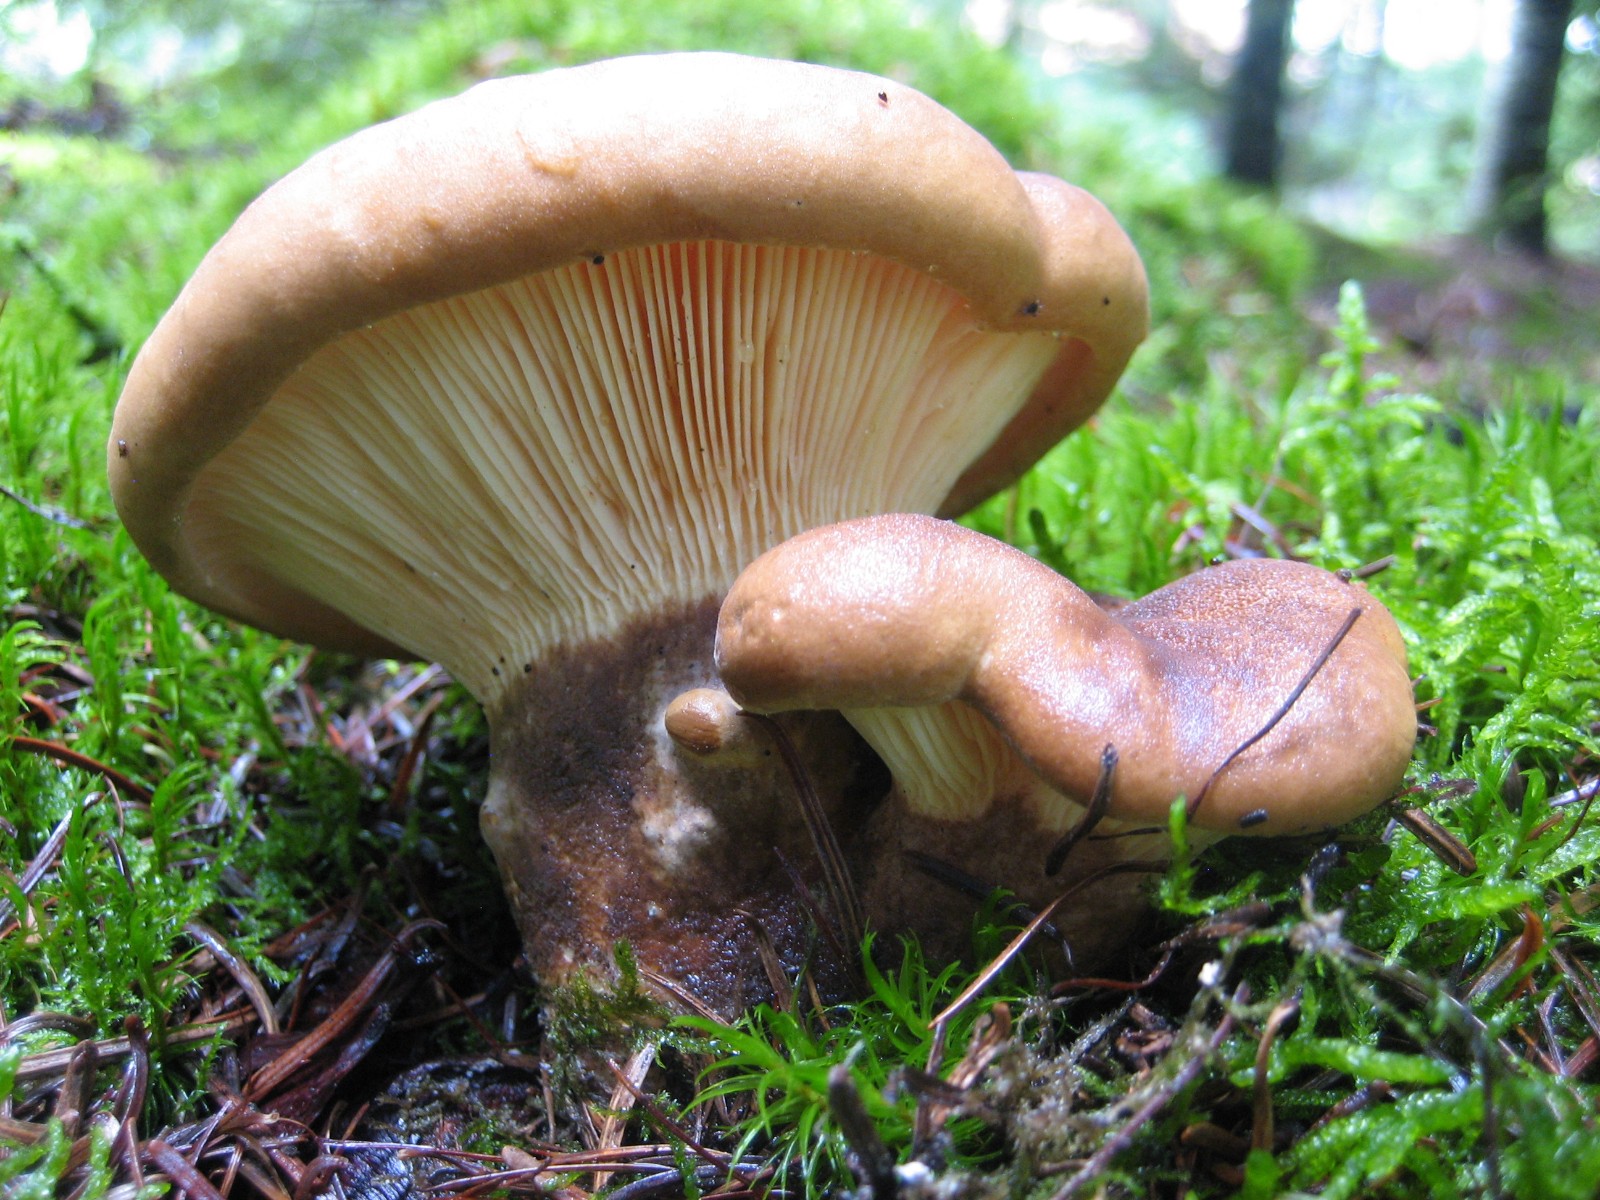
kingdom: Fungi
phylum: Basidiomycota
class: Agaricomycetes
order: Boletales
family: Tapinellaceae
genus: Tapinella
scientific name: Tapinella atrotomentosa
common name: sortfiltet viftesvamp
